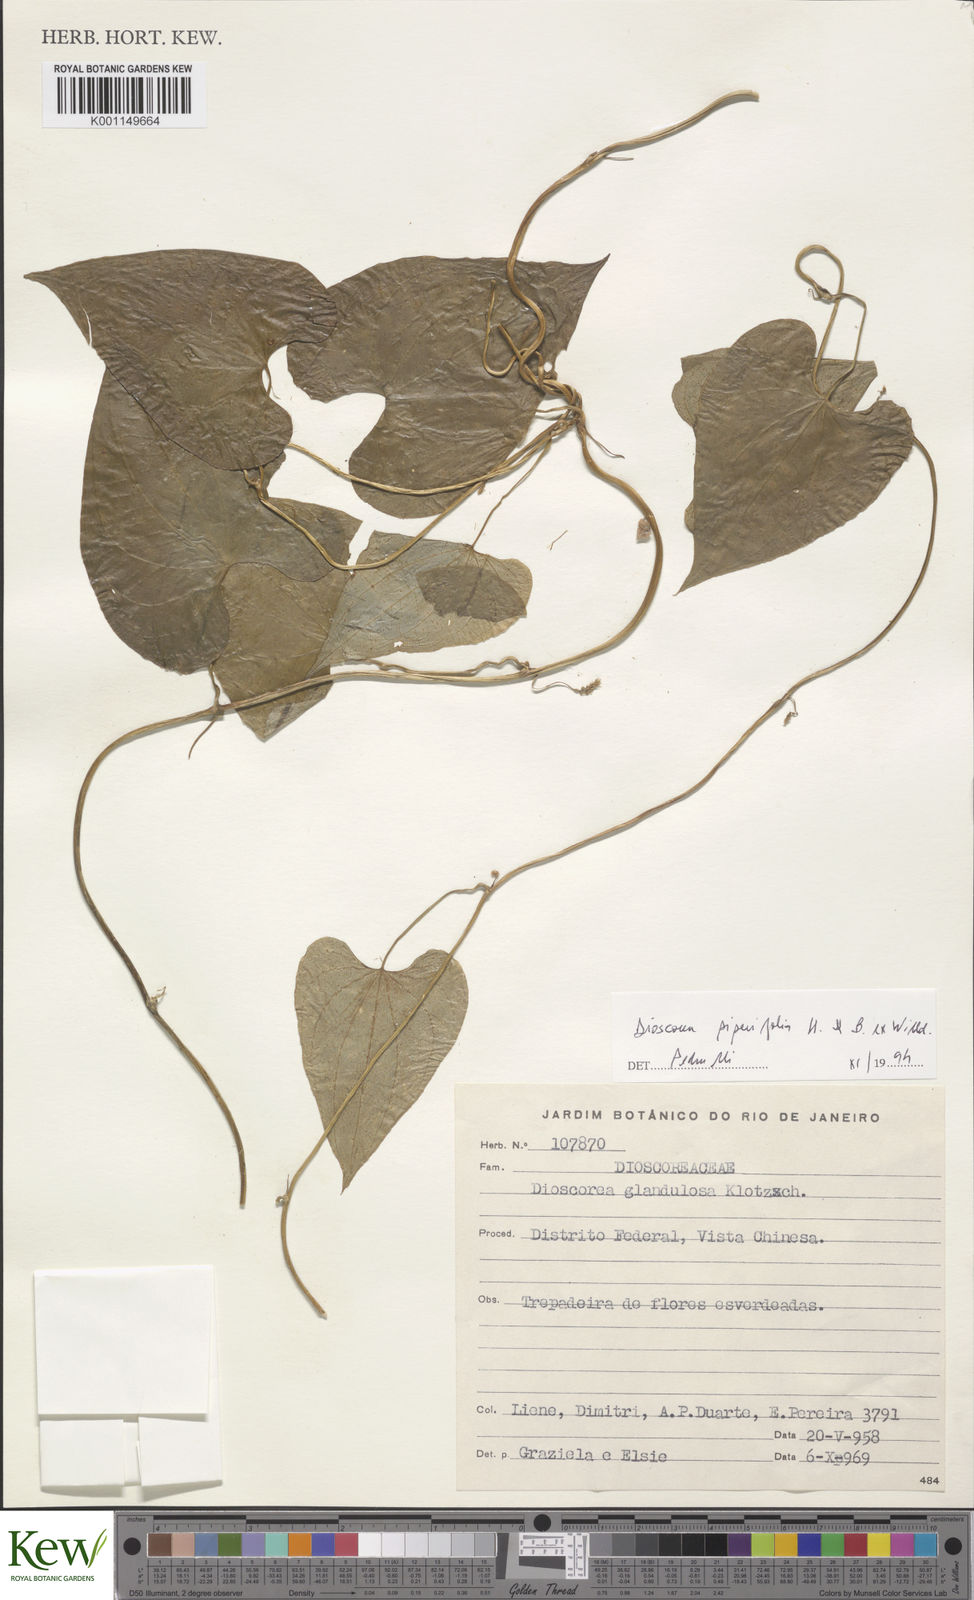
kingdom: Plantae
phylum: Tracheophyta
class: Liliopsida
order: Dioscoreales
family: Dioscoreaceae
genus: Dioscorea
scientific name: Dioscorea glandulosa
